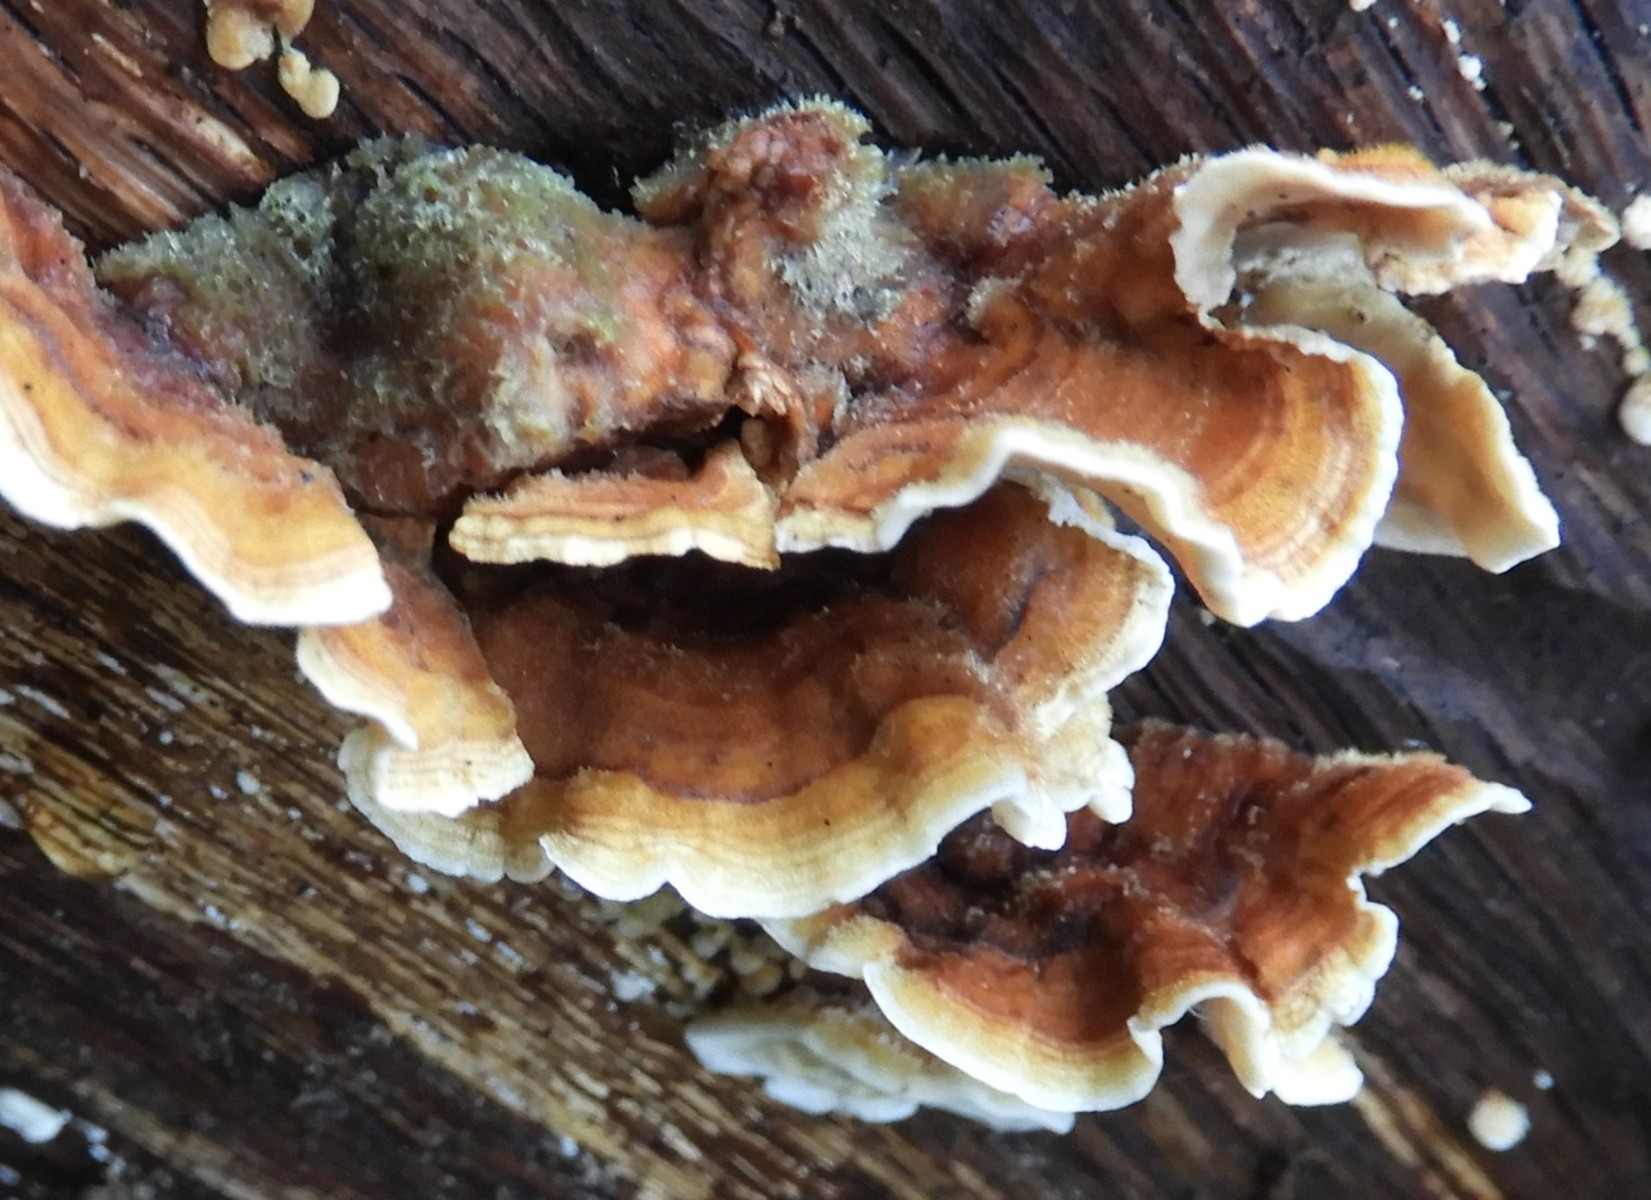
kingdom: Fungi
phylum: Basidiomycota
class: Agaricomycetes
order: Russulales
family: Stereaceae
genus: Stereum
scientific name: Stereum hirsutum
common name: håret lædersvamp
